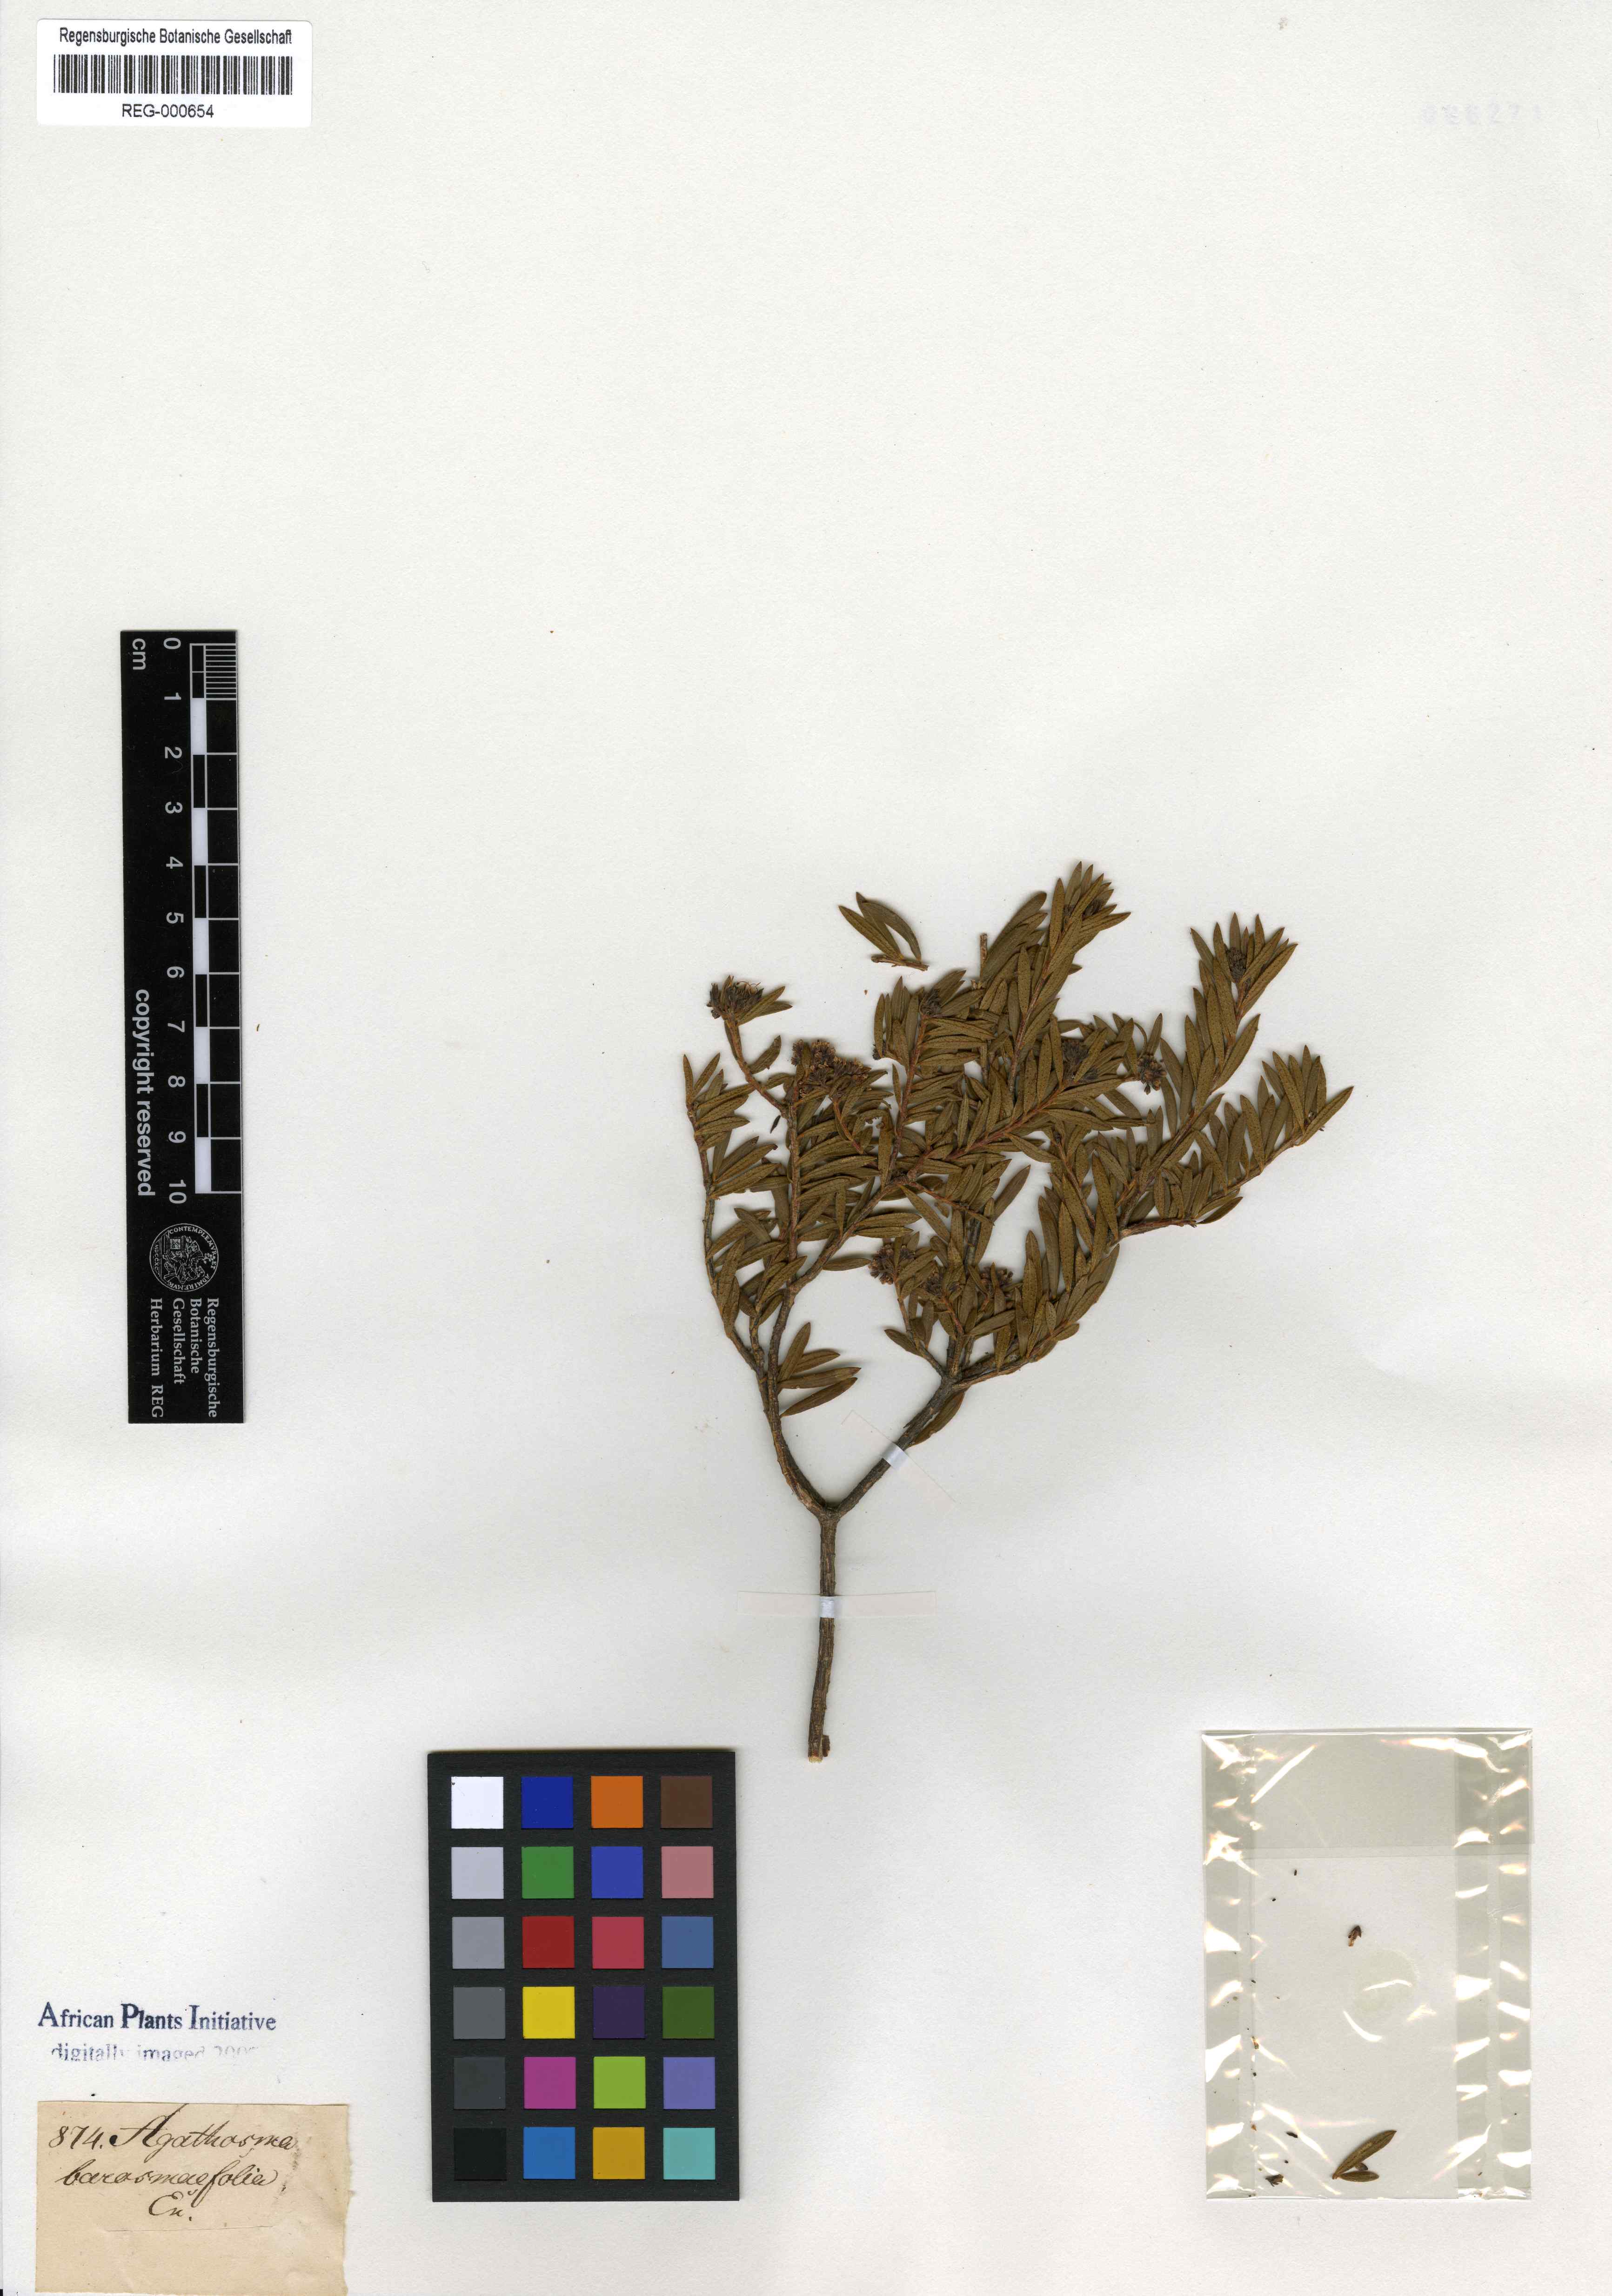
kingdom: Plantae
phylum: Tracheophyta
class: Magnoliopsida
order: Sapindales
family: Rutaceae
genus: Agathosma
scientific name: Agathosma bisulca
